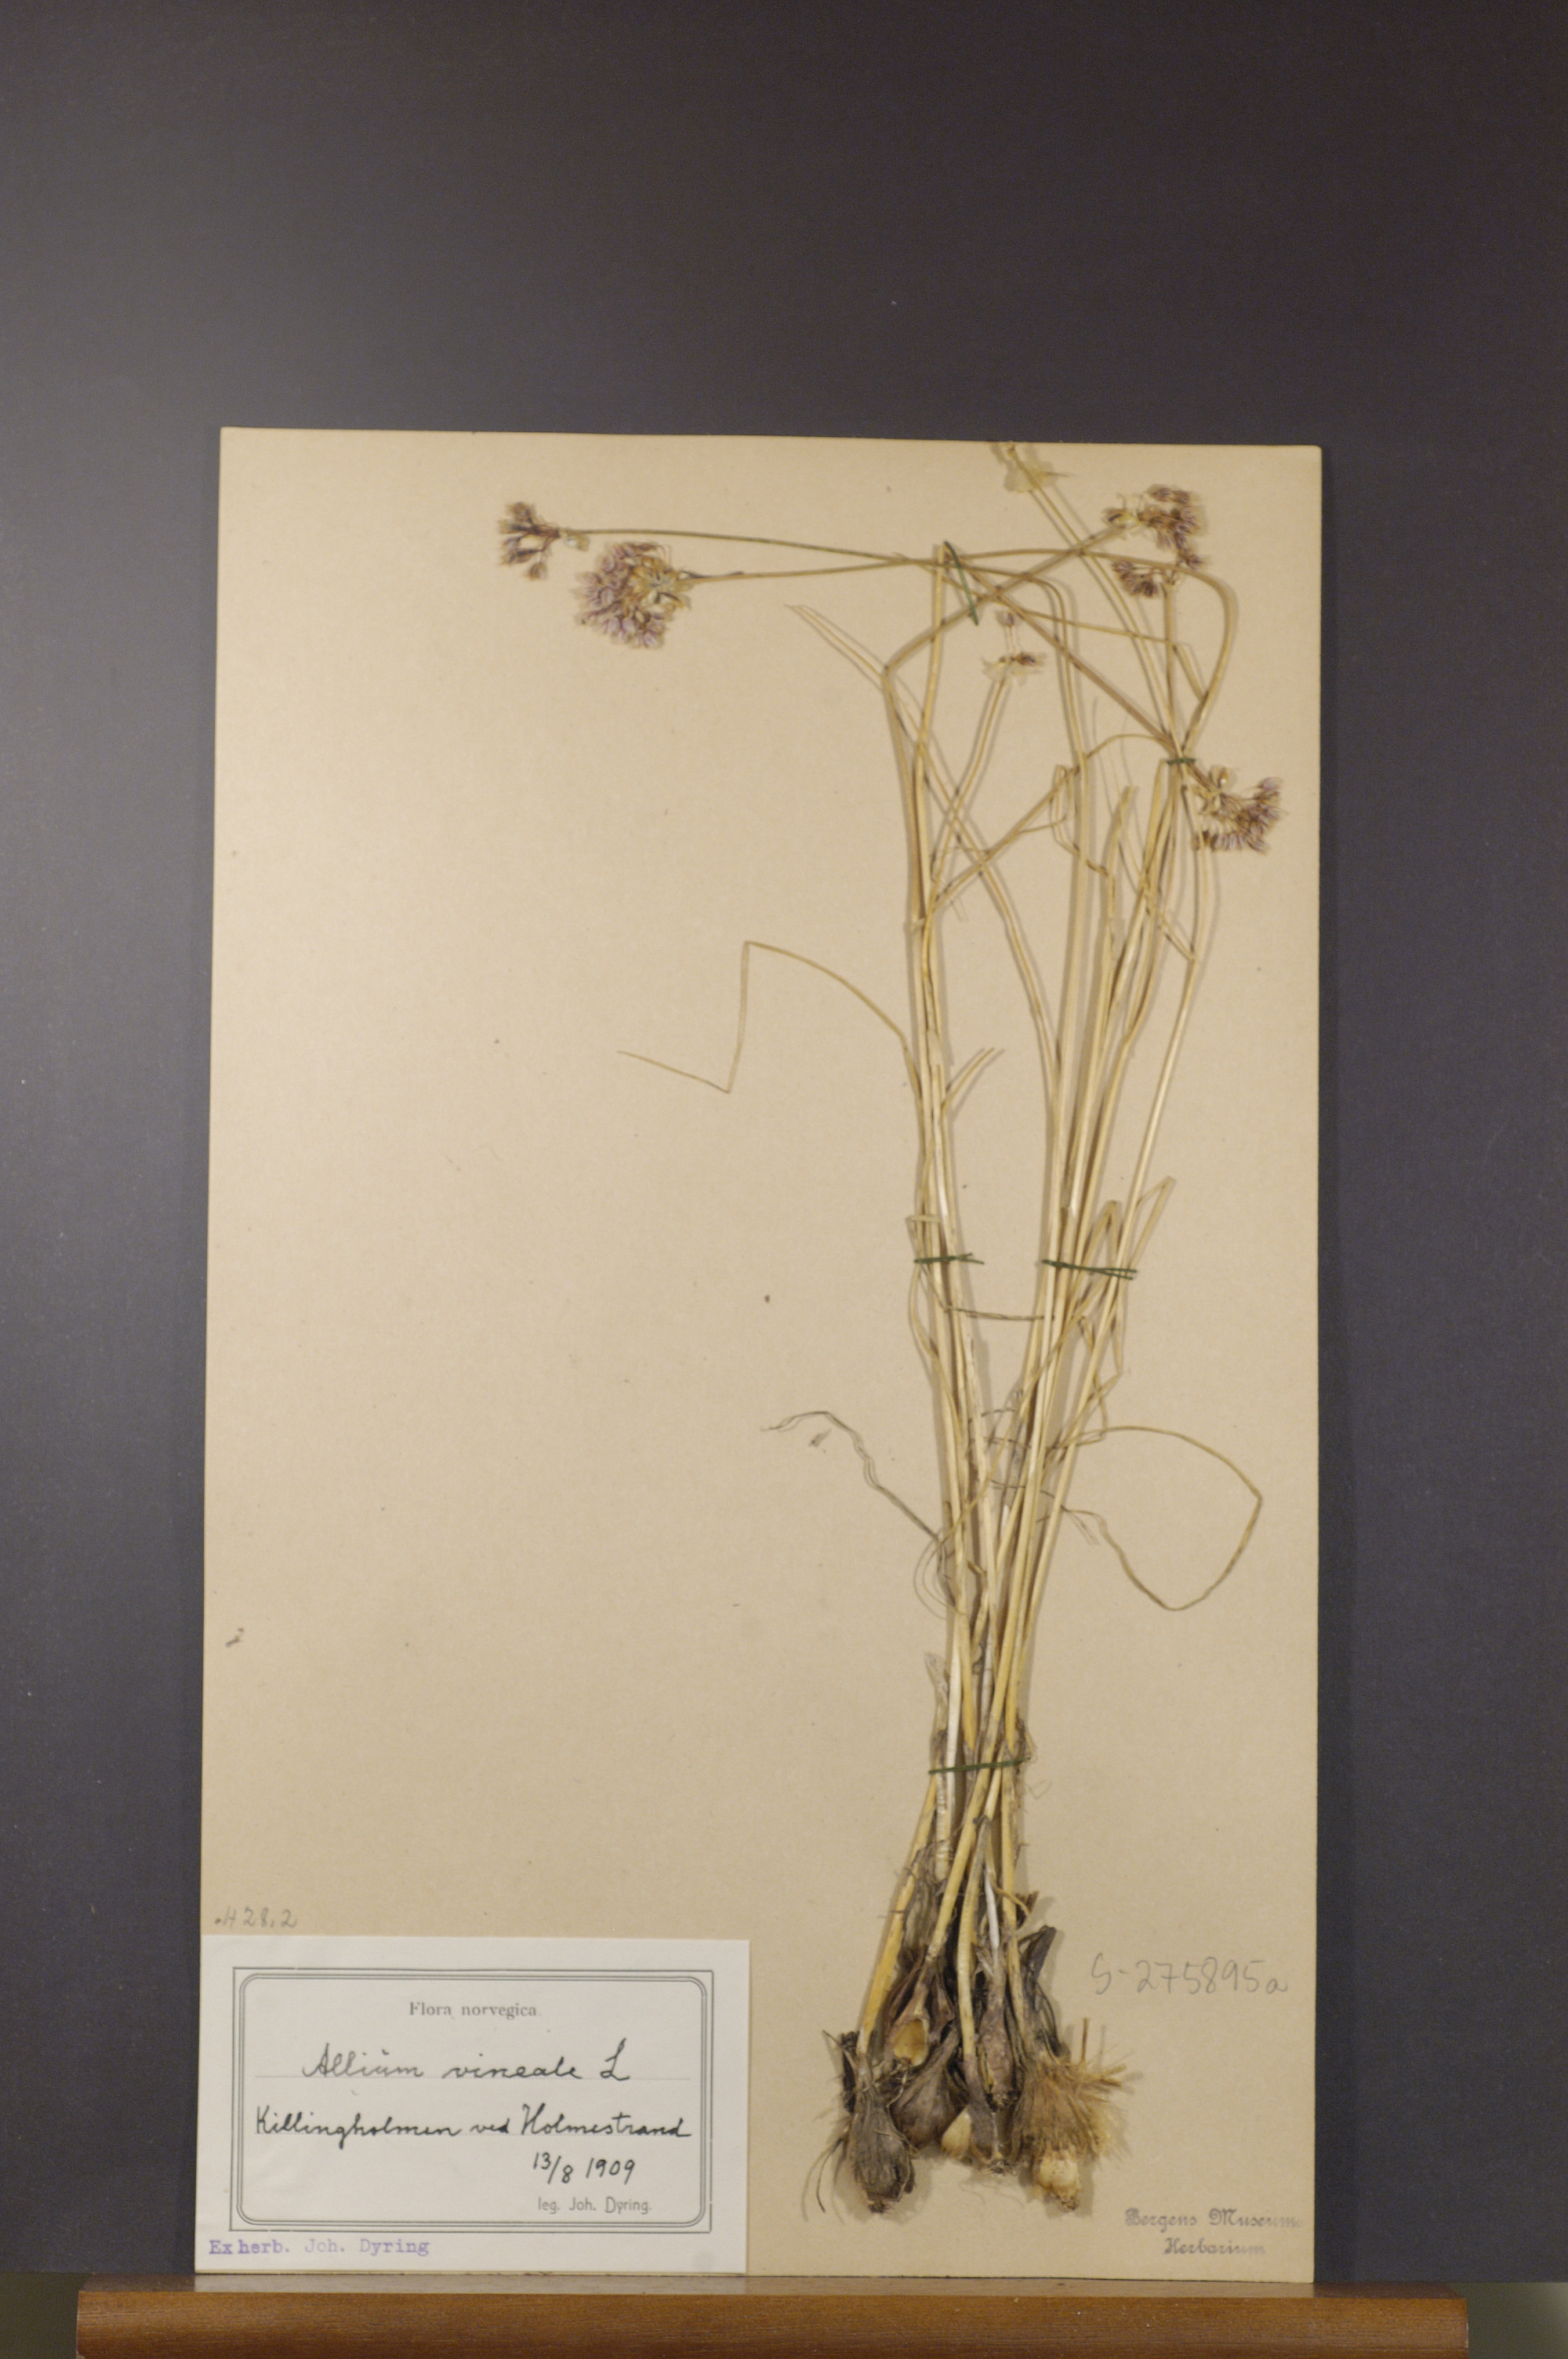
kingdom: Plantae
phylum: Tracheophyta
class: Liliopsida
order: Asparagales
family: Amaryllidaceae
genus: Allium
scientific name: Allium vineale
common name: Crow garlic
